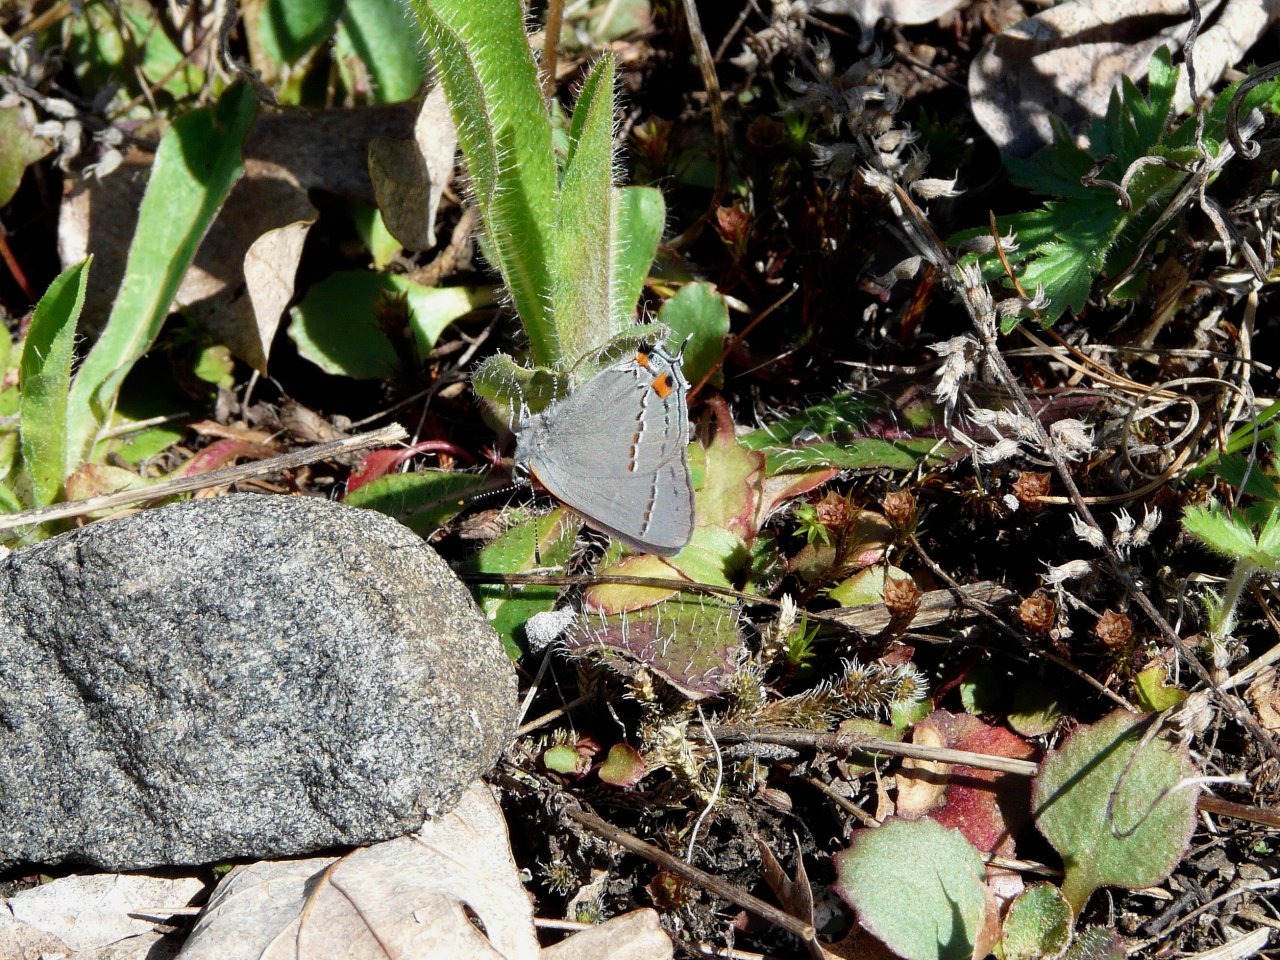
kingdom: Animalia
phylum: Arthropoda
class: Insecta
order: Lepidoptera
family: Lycaenidae
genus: Strymon
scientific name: Strymon melinus
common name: Gray Hairstreak
